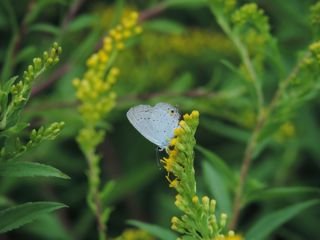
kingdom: Animalia
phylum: Arthropoda
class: Insecta
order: Lepidoptera
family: Lycaenidae
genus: Elkalyce
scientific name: Elkalyce comyntas
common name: Eastern Tailed-Blue
